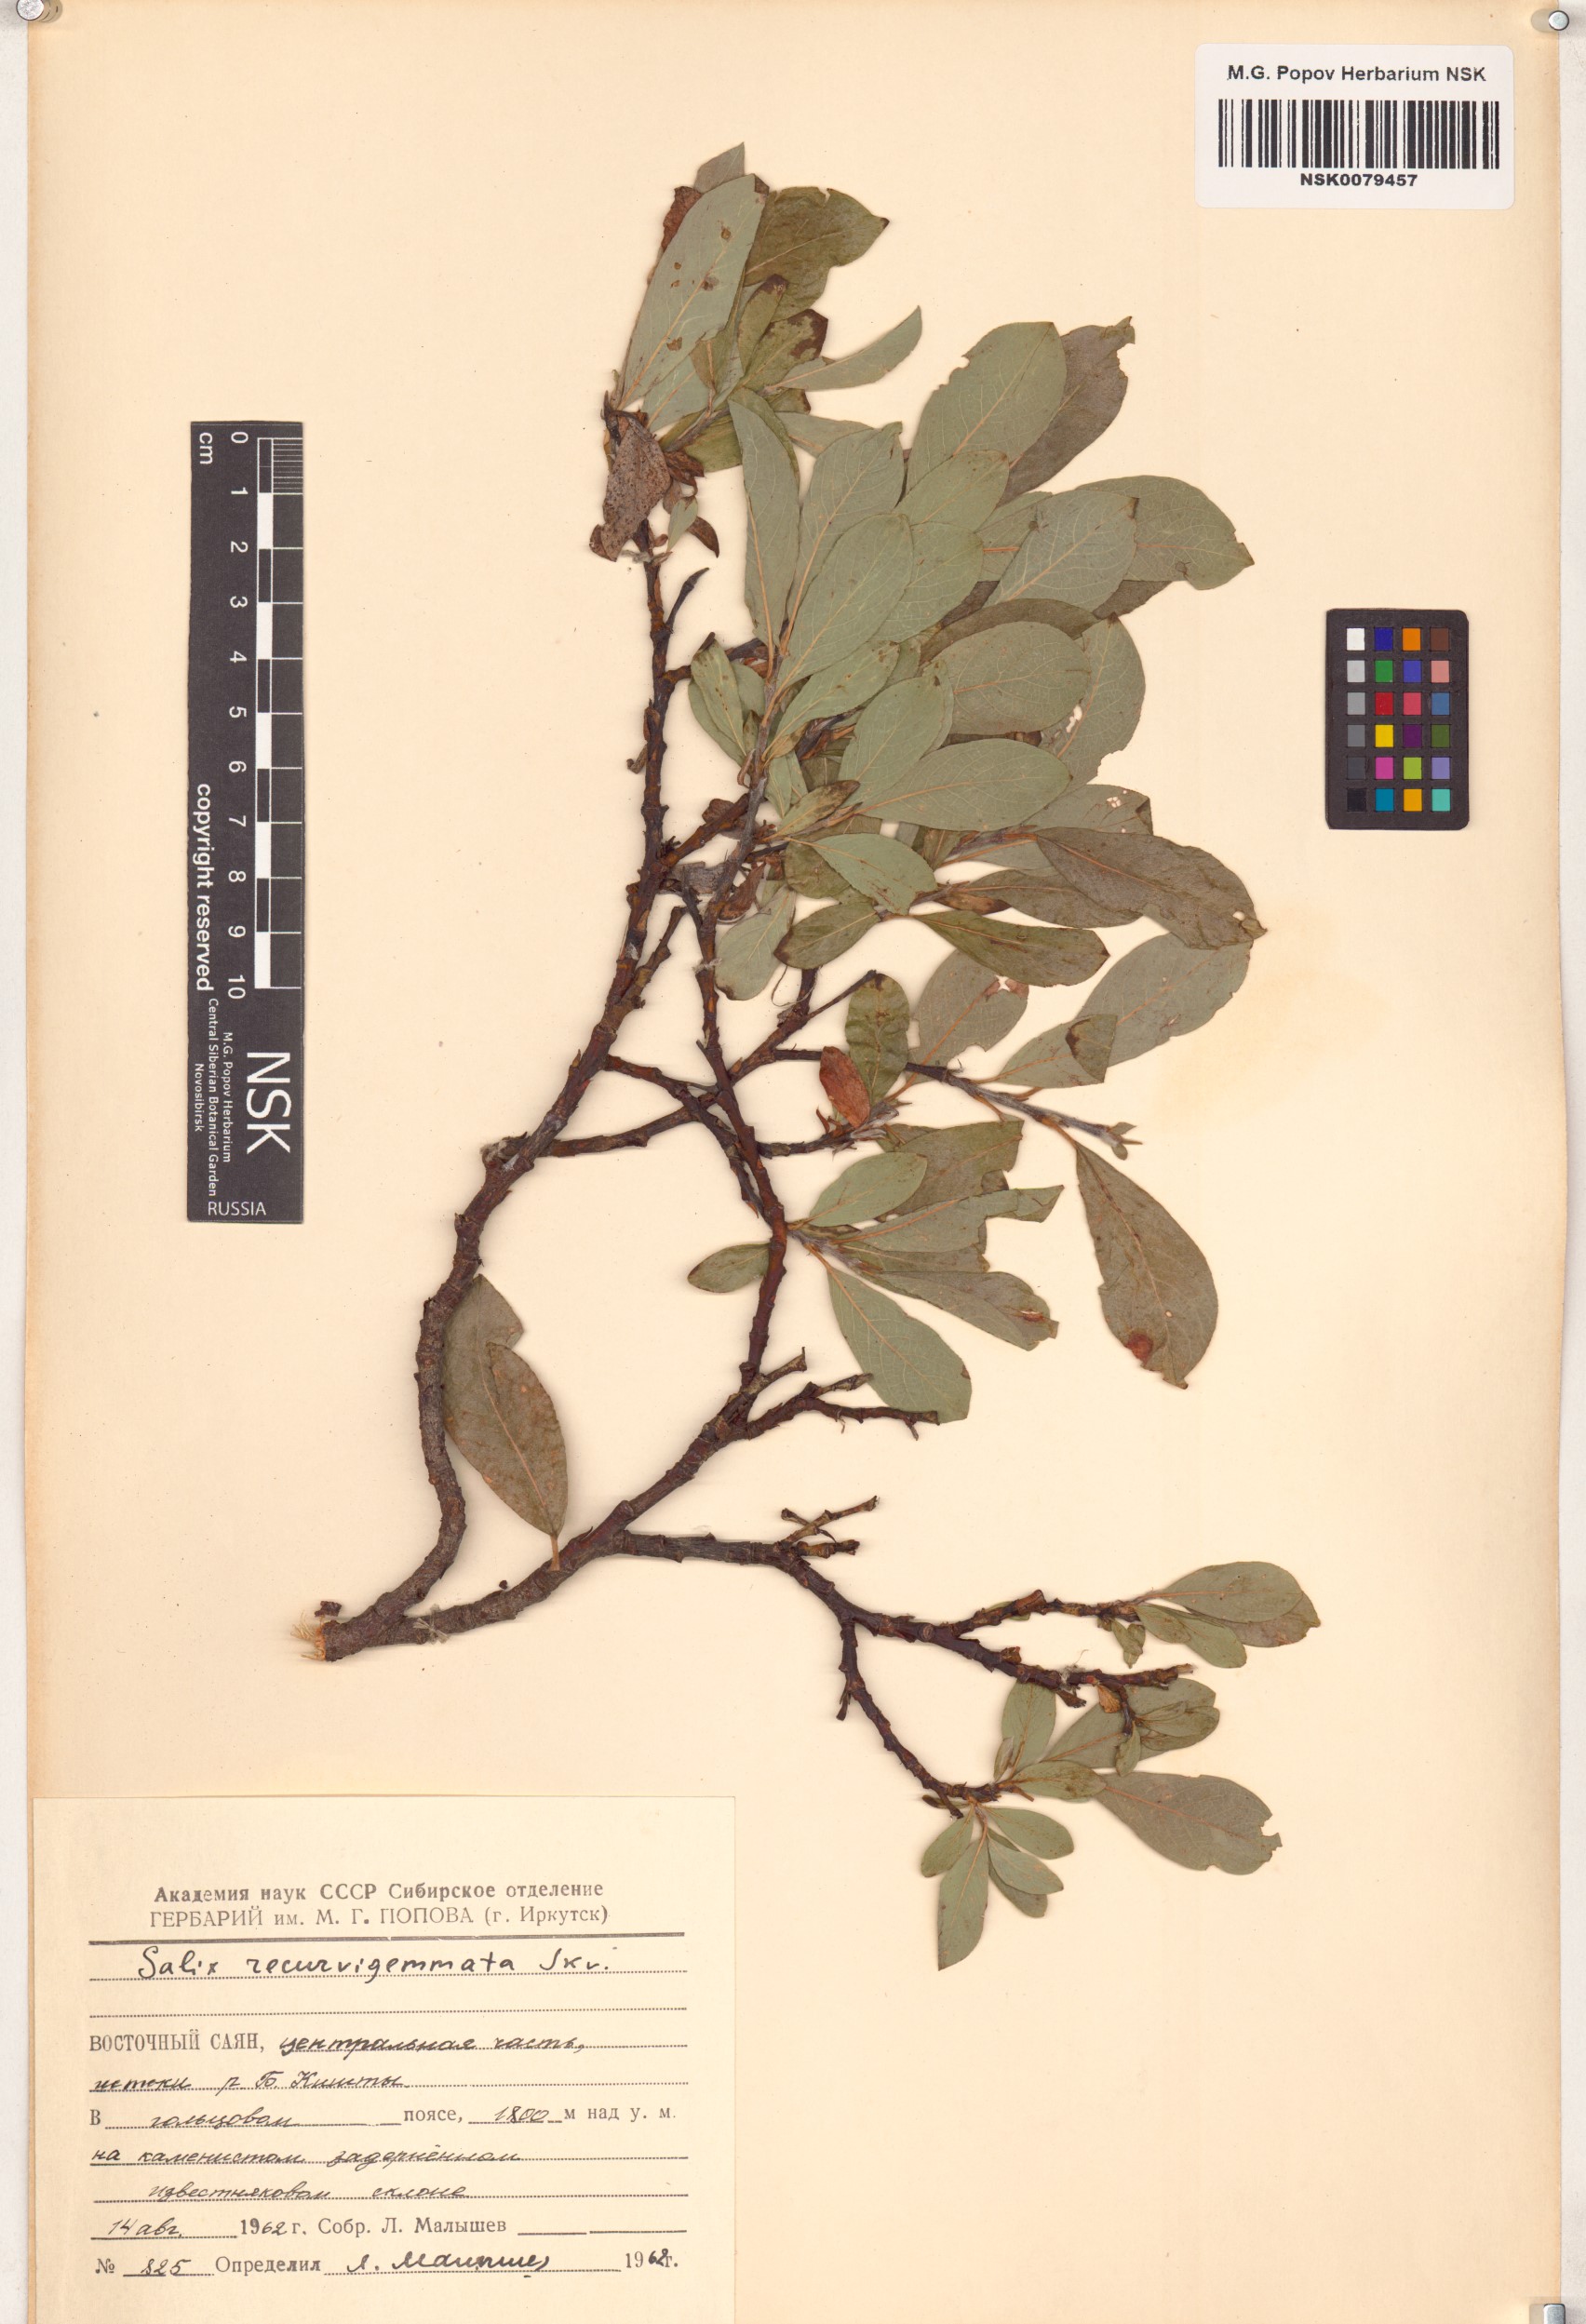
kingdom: Plantae
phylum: Tracheophyta
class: Magnoliopsida
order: Malpighiales
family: Salicaceae
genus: Salix
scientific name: Salix recurvigemmata
